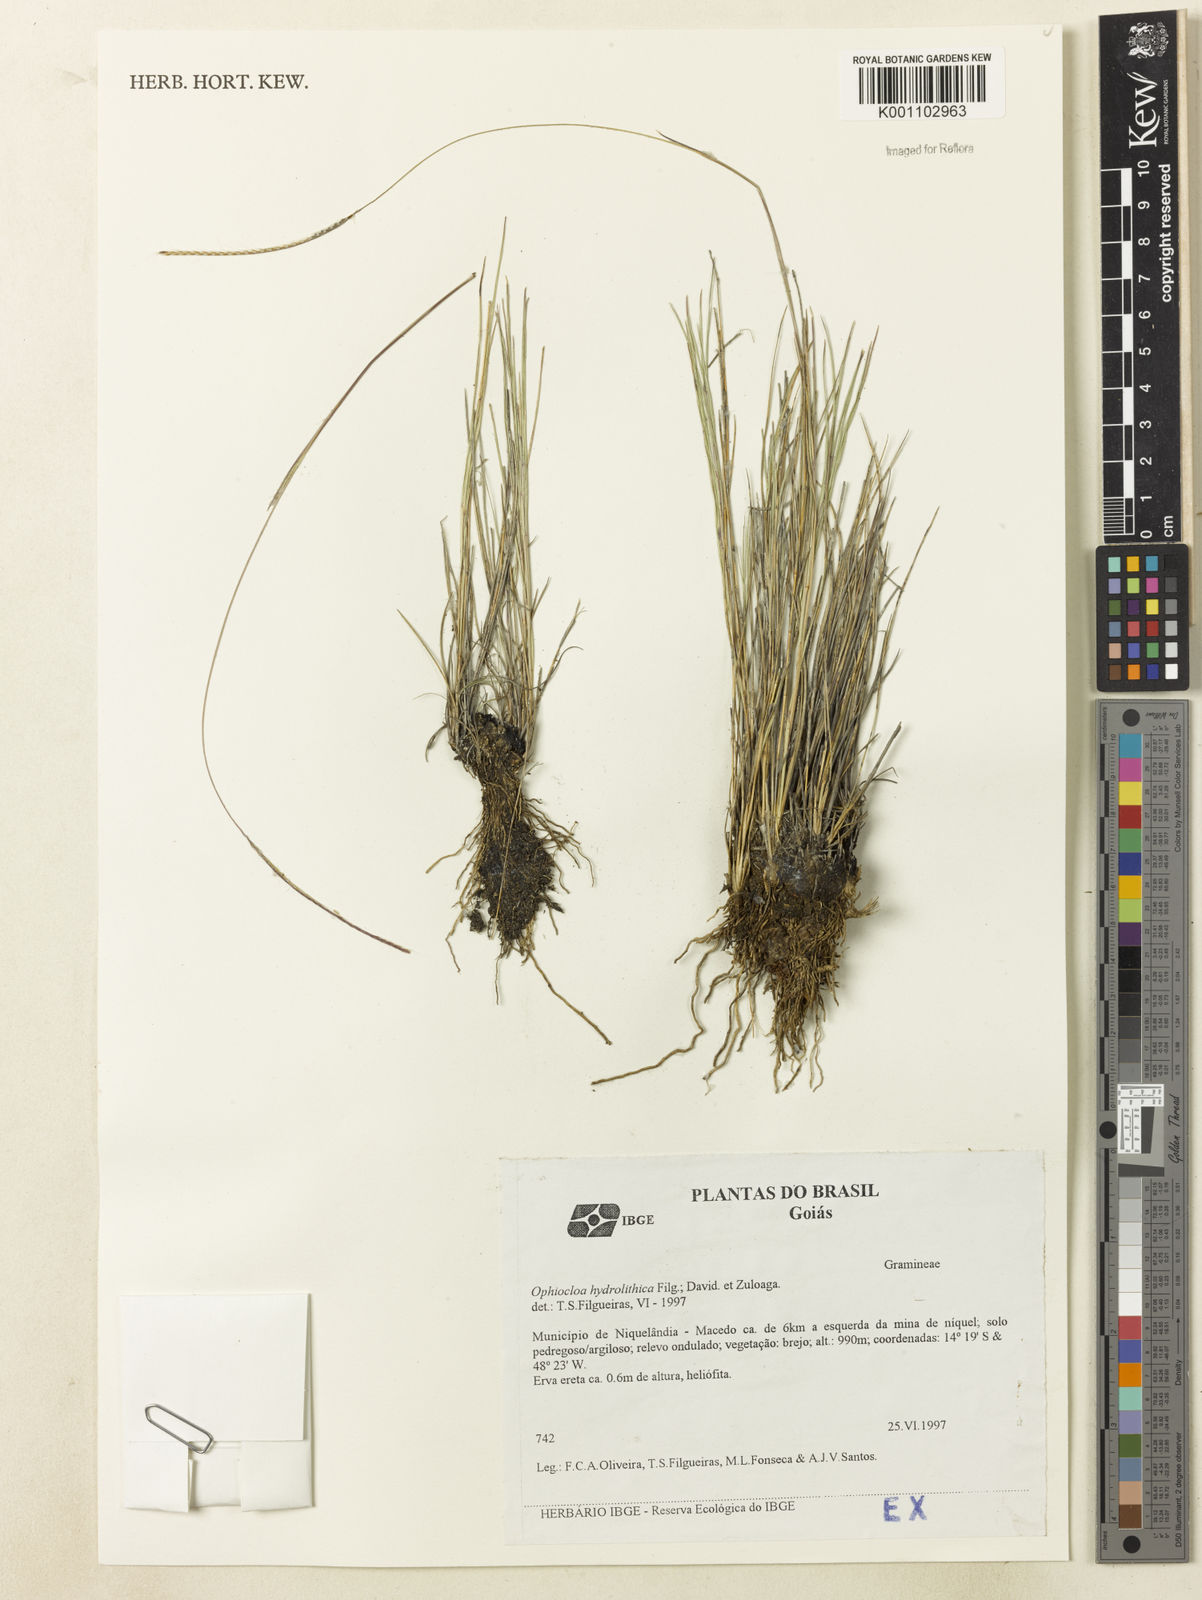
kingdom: Plantae
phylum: Tracheophyta
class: Liliopsida
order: Poales
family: Poaceae
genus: Axonopus
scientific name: Axonopus hydrolithicus
